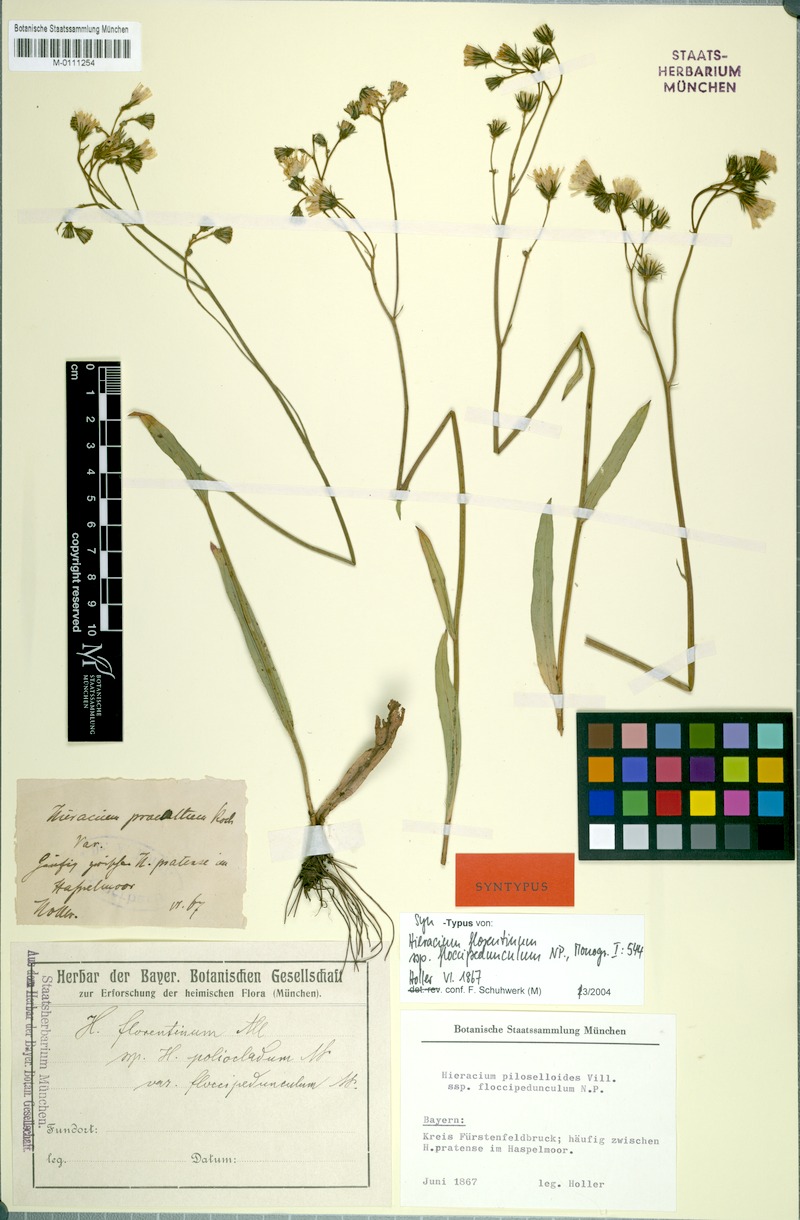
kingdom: Plantae
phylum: Tracheophyta
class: Magnoliopsida
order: Asterales
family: Asteraceae
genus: Pilosella
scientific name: Pilosella piloselloides
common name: Glaucous king-devil
